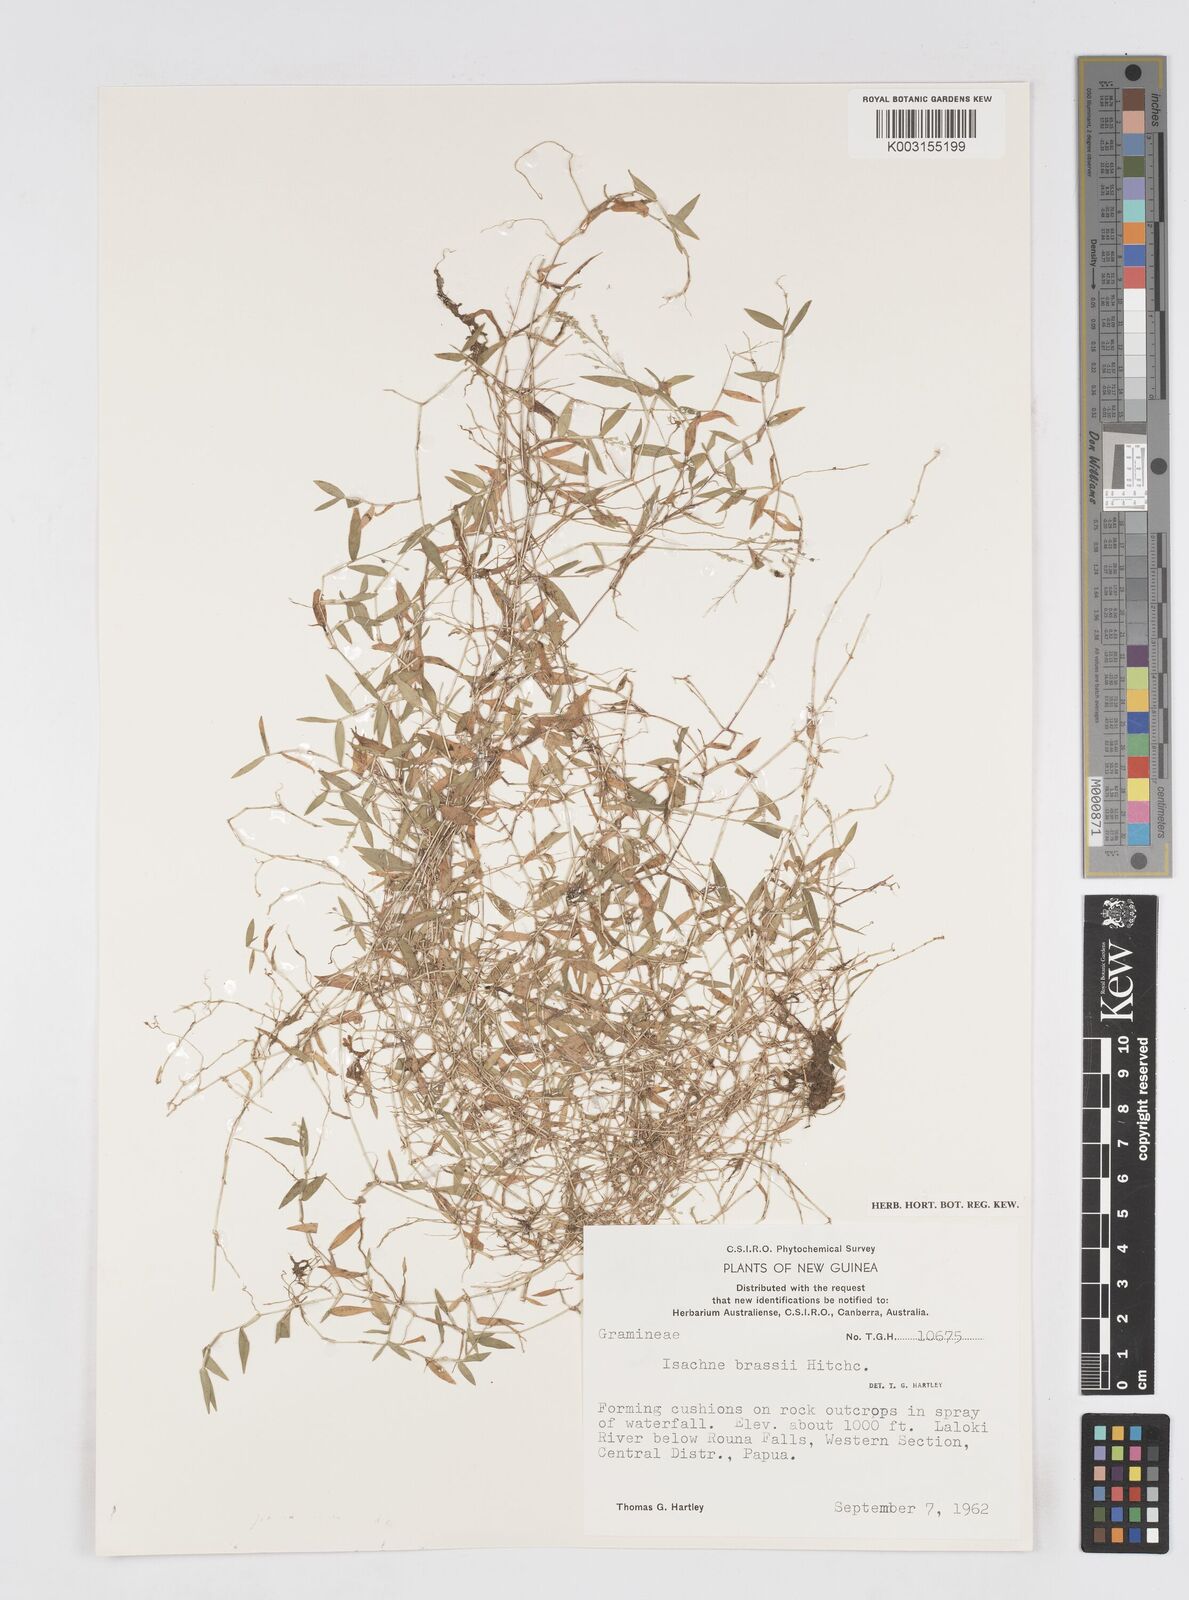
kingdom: Plantae
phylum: Tracheophyta
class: Liliopsida
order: Poales
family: Poaceae
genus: Isachne
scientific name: Isachne brassii
